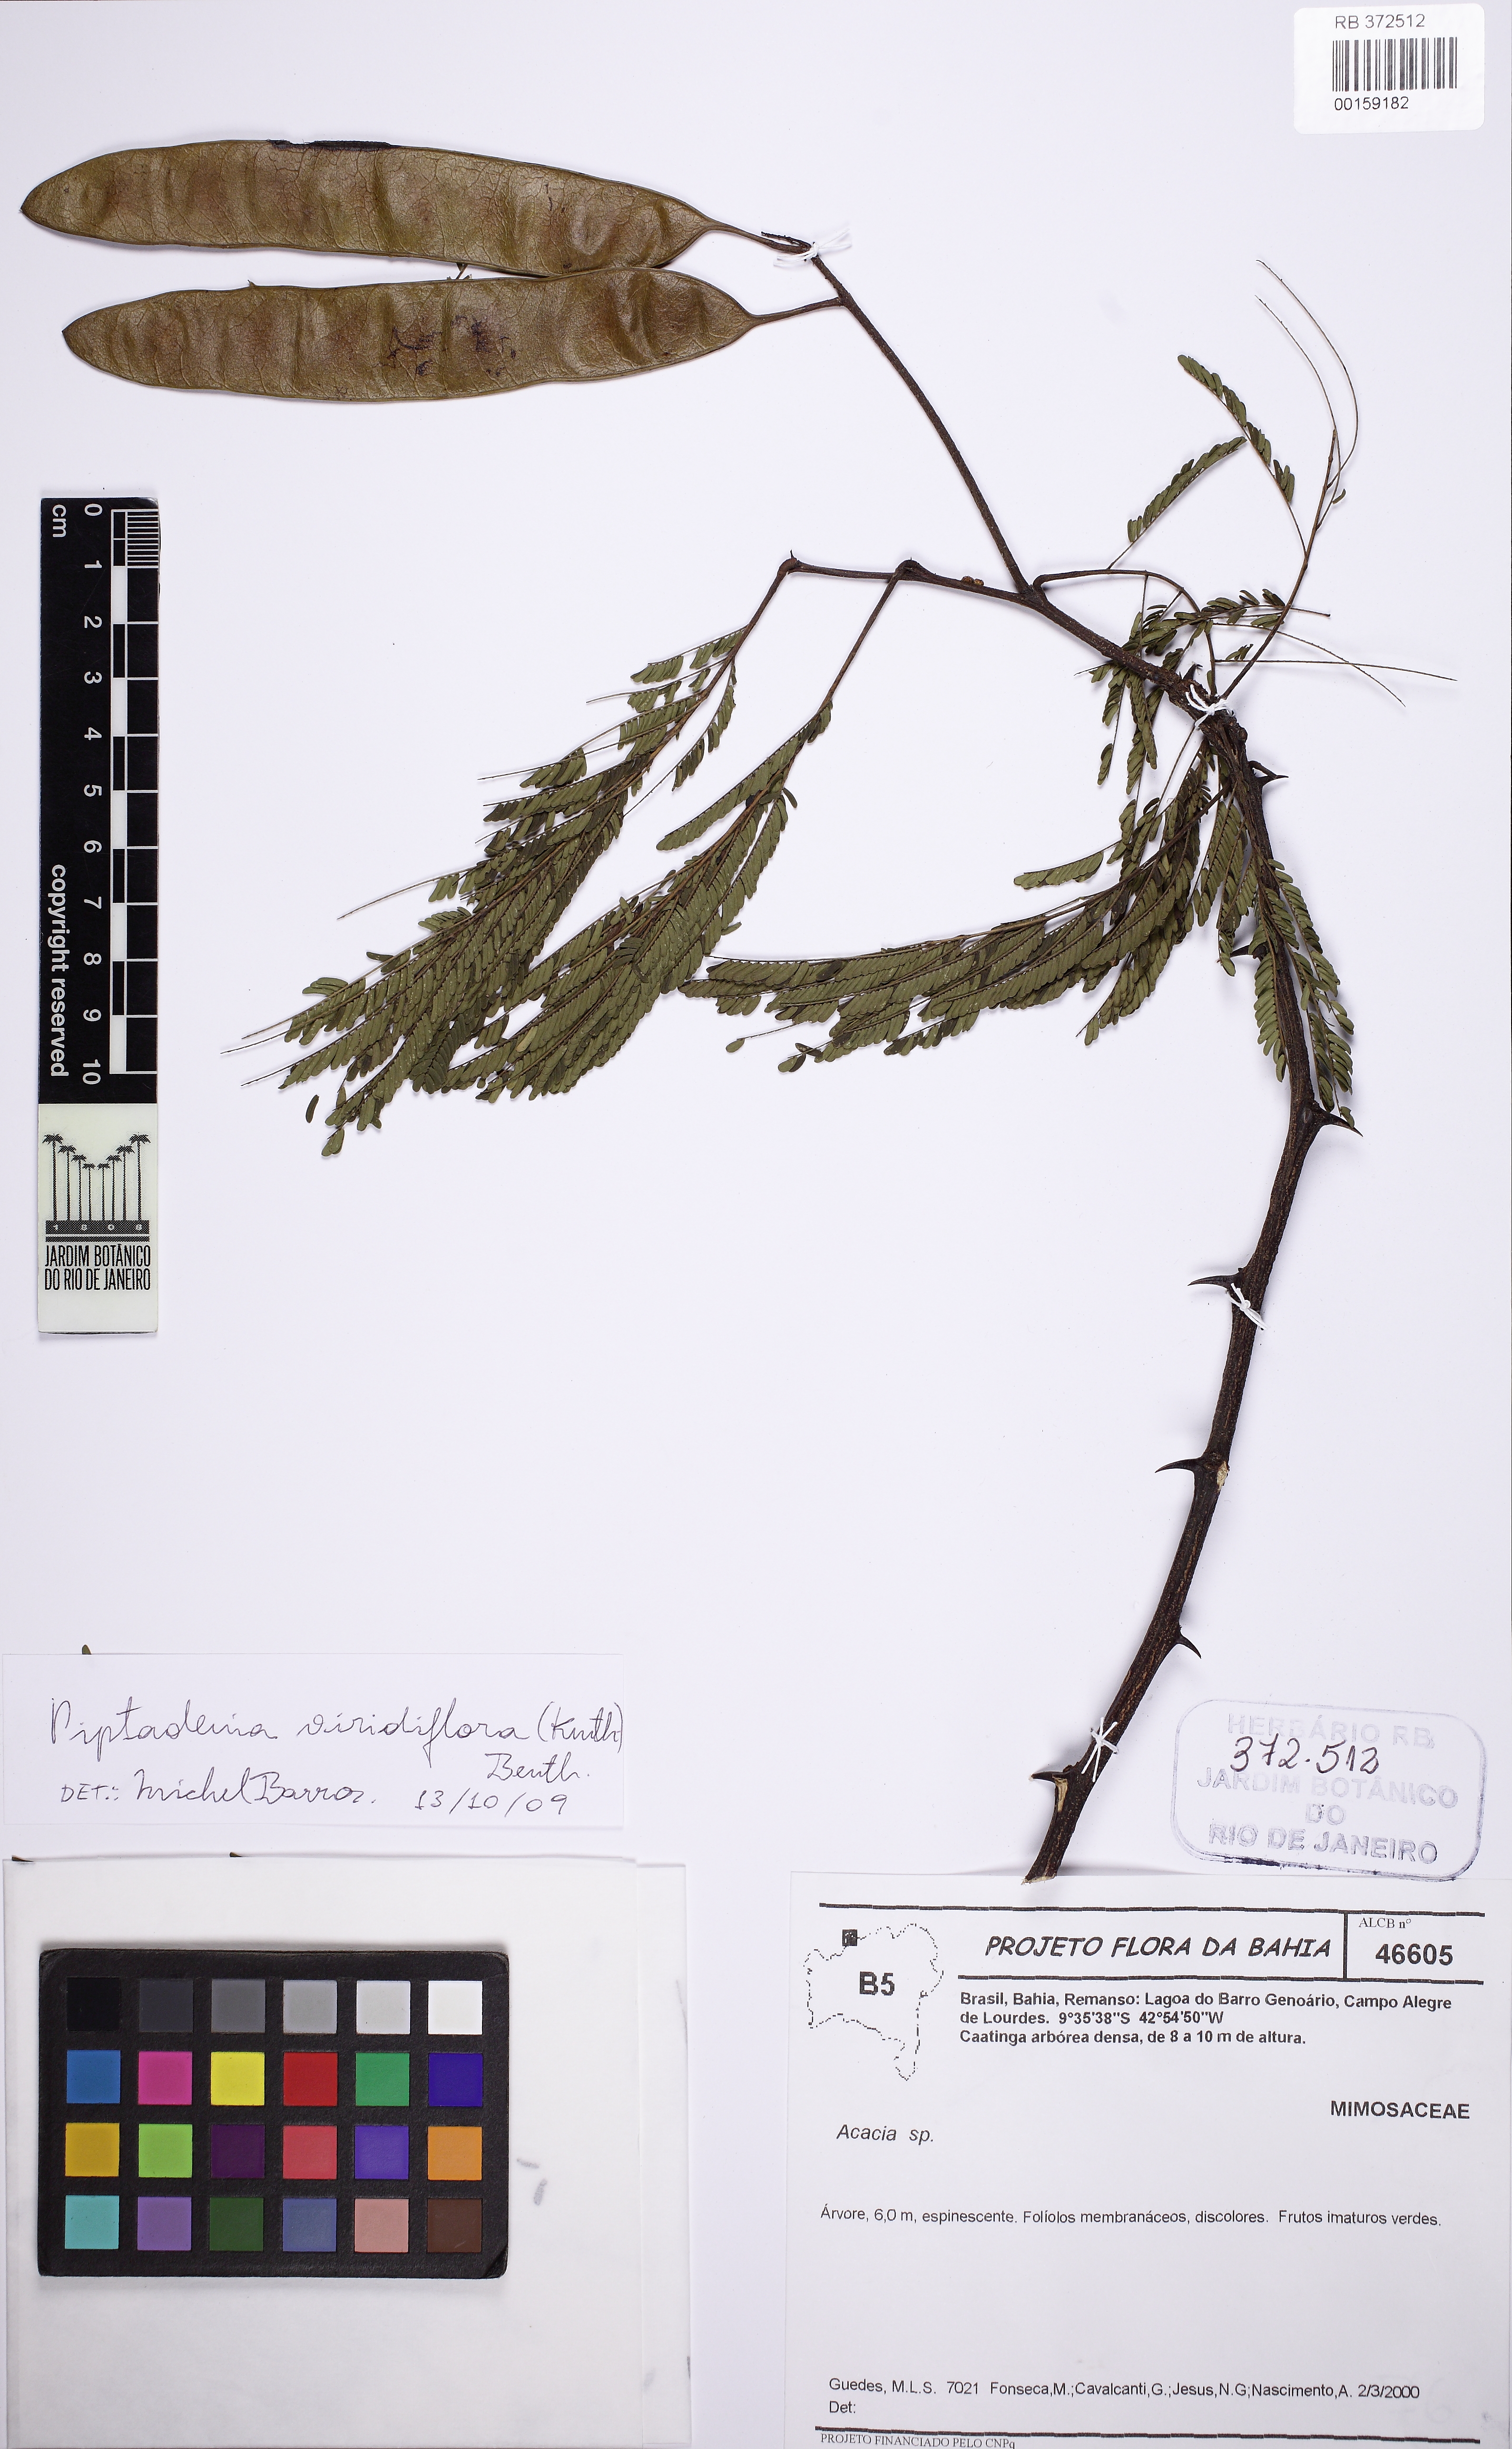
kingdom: Plantae
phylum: Tracheophyta
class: Magnoliopsida
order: Fabales
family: Fabaceae
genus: Lachesiodendron
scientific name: Lachesiodendron viridiflorum
